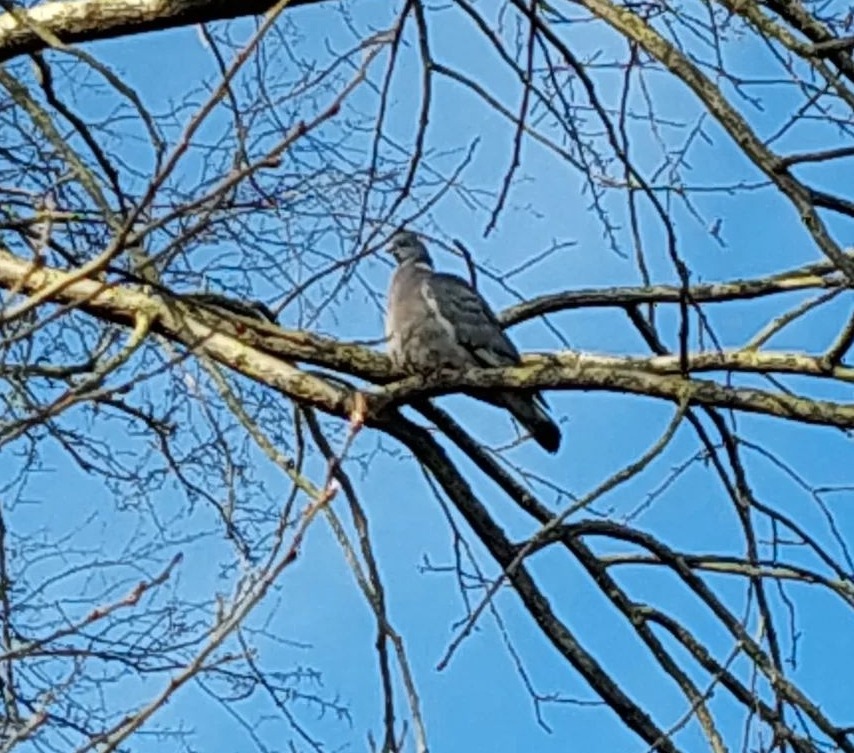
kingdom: Animalia
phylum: Chordata
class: Aves
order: Columbiformes
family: Columbidae
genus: Columba
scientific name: Columba palumbus
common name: Ringdue
